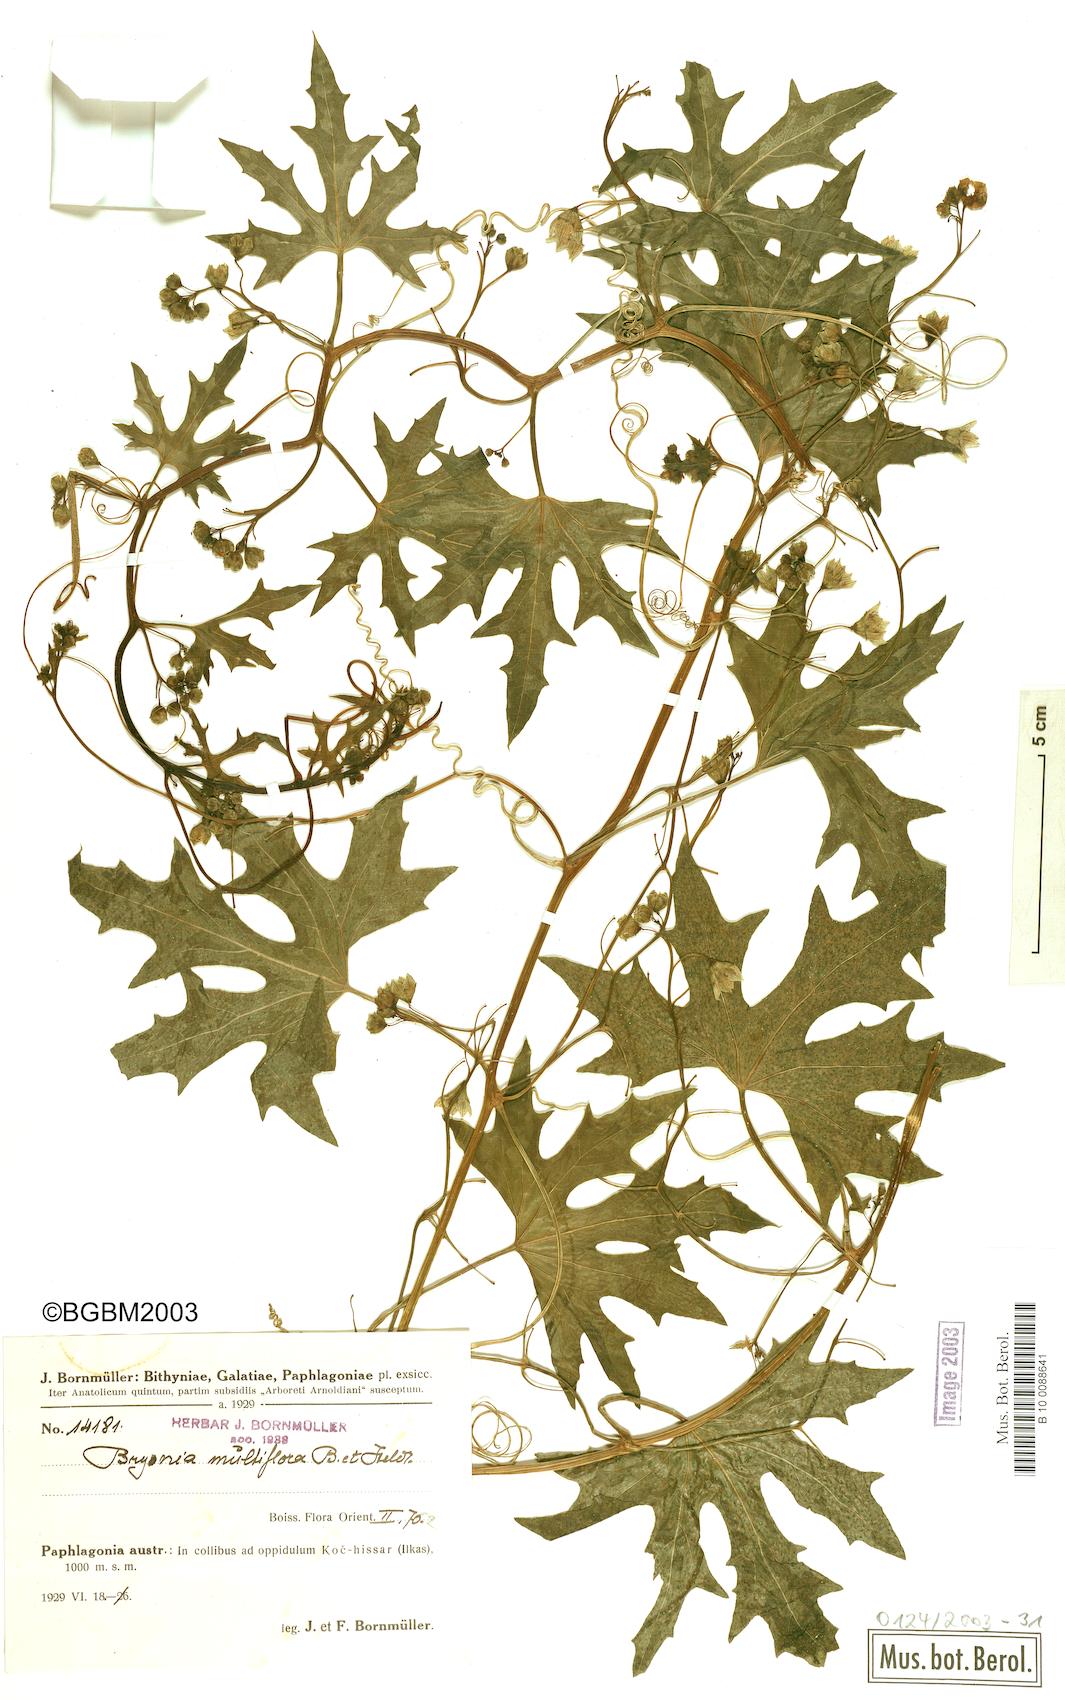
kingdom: Plantae
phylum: Tracheophyta
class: Magnoliopsida
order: Cucurbitales
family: Cucurbitaceae
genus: Bryonia
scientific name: Bryonia multiflora
